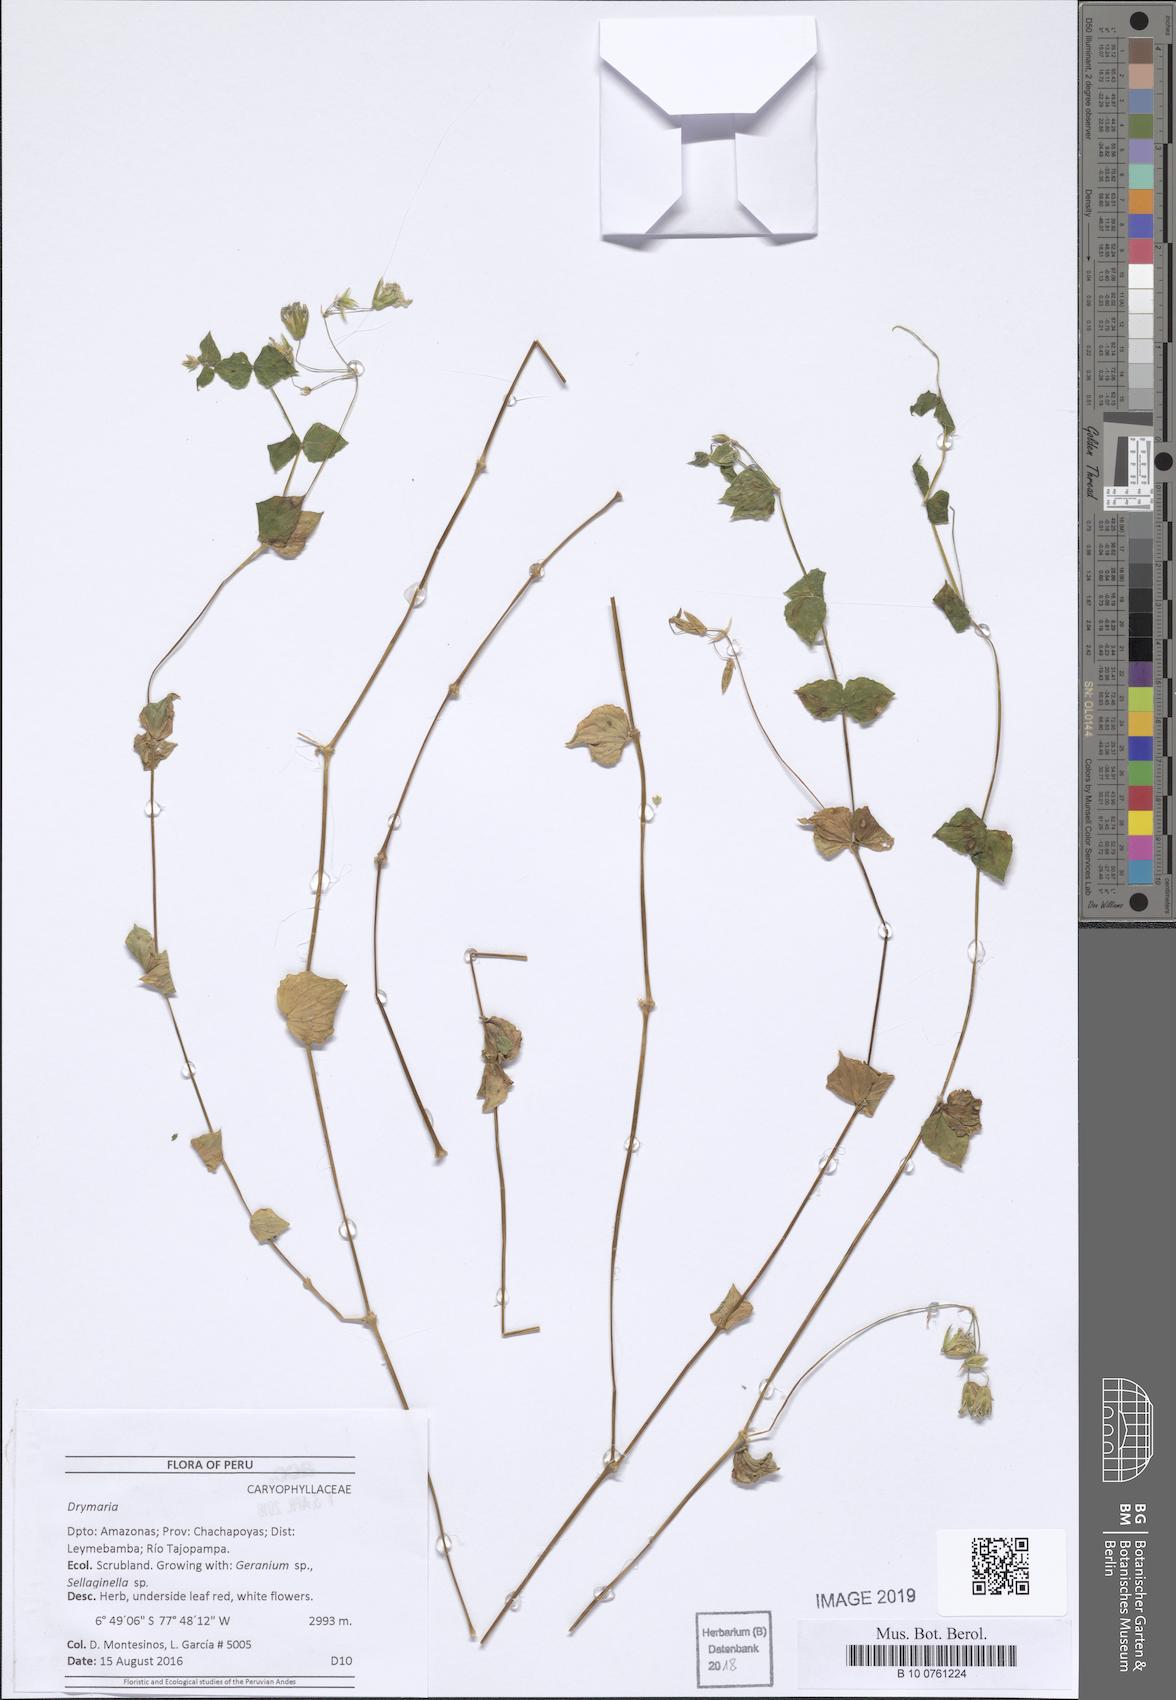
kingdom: Plantae
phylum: Tracheophyta
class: Magnoliopsida
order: Caryophyllales
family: Caryophyllaceae
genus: Drymaria
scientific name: Drymaria
